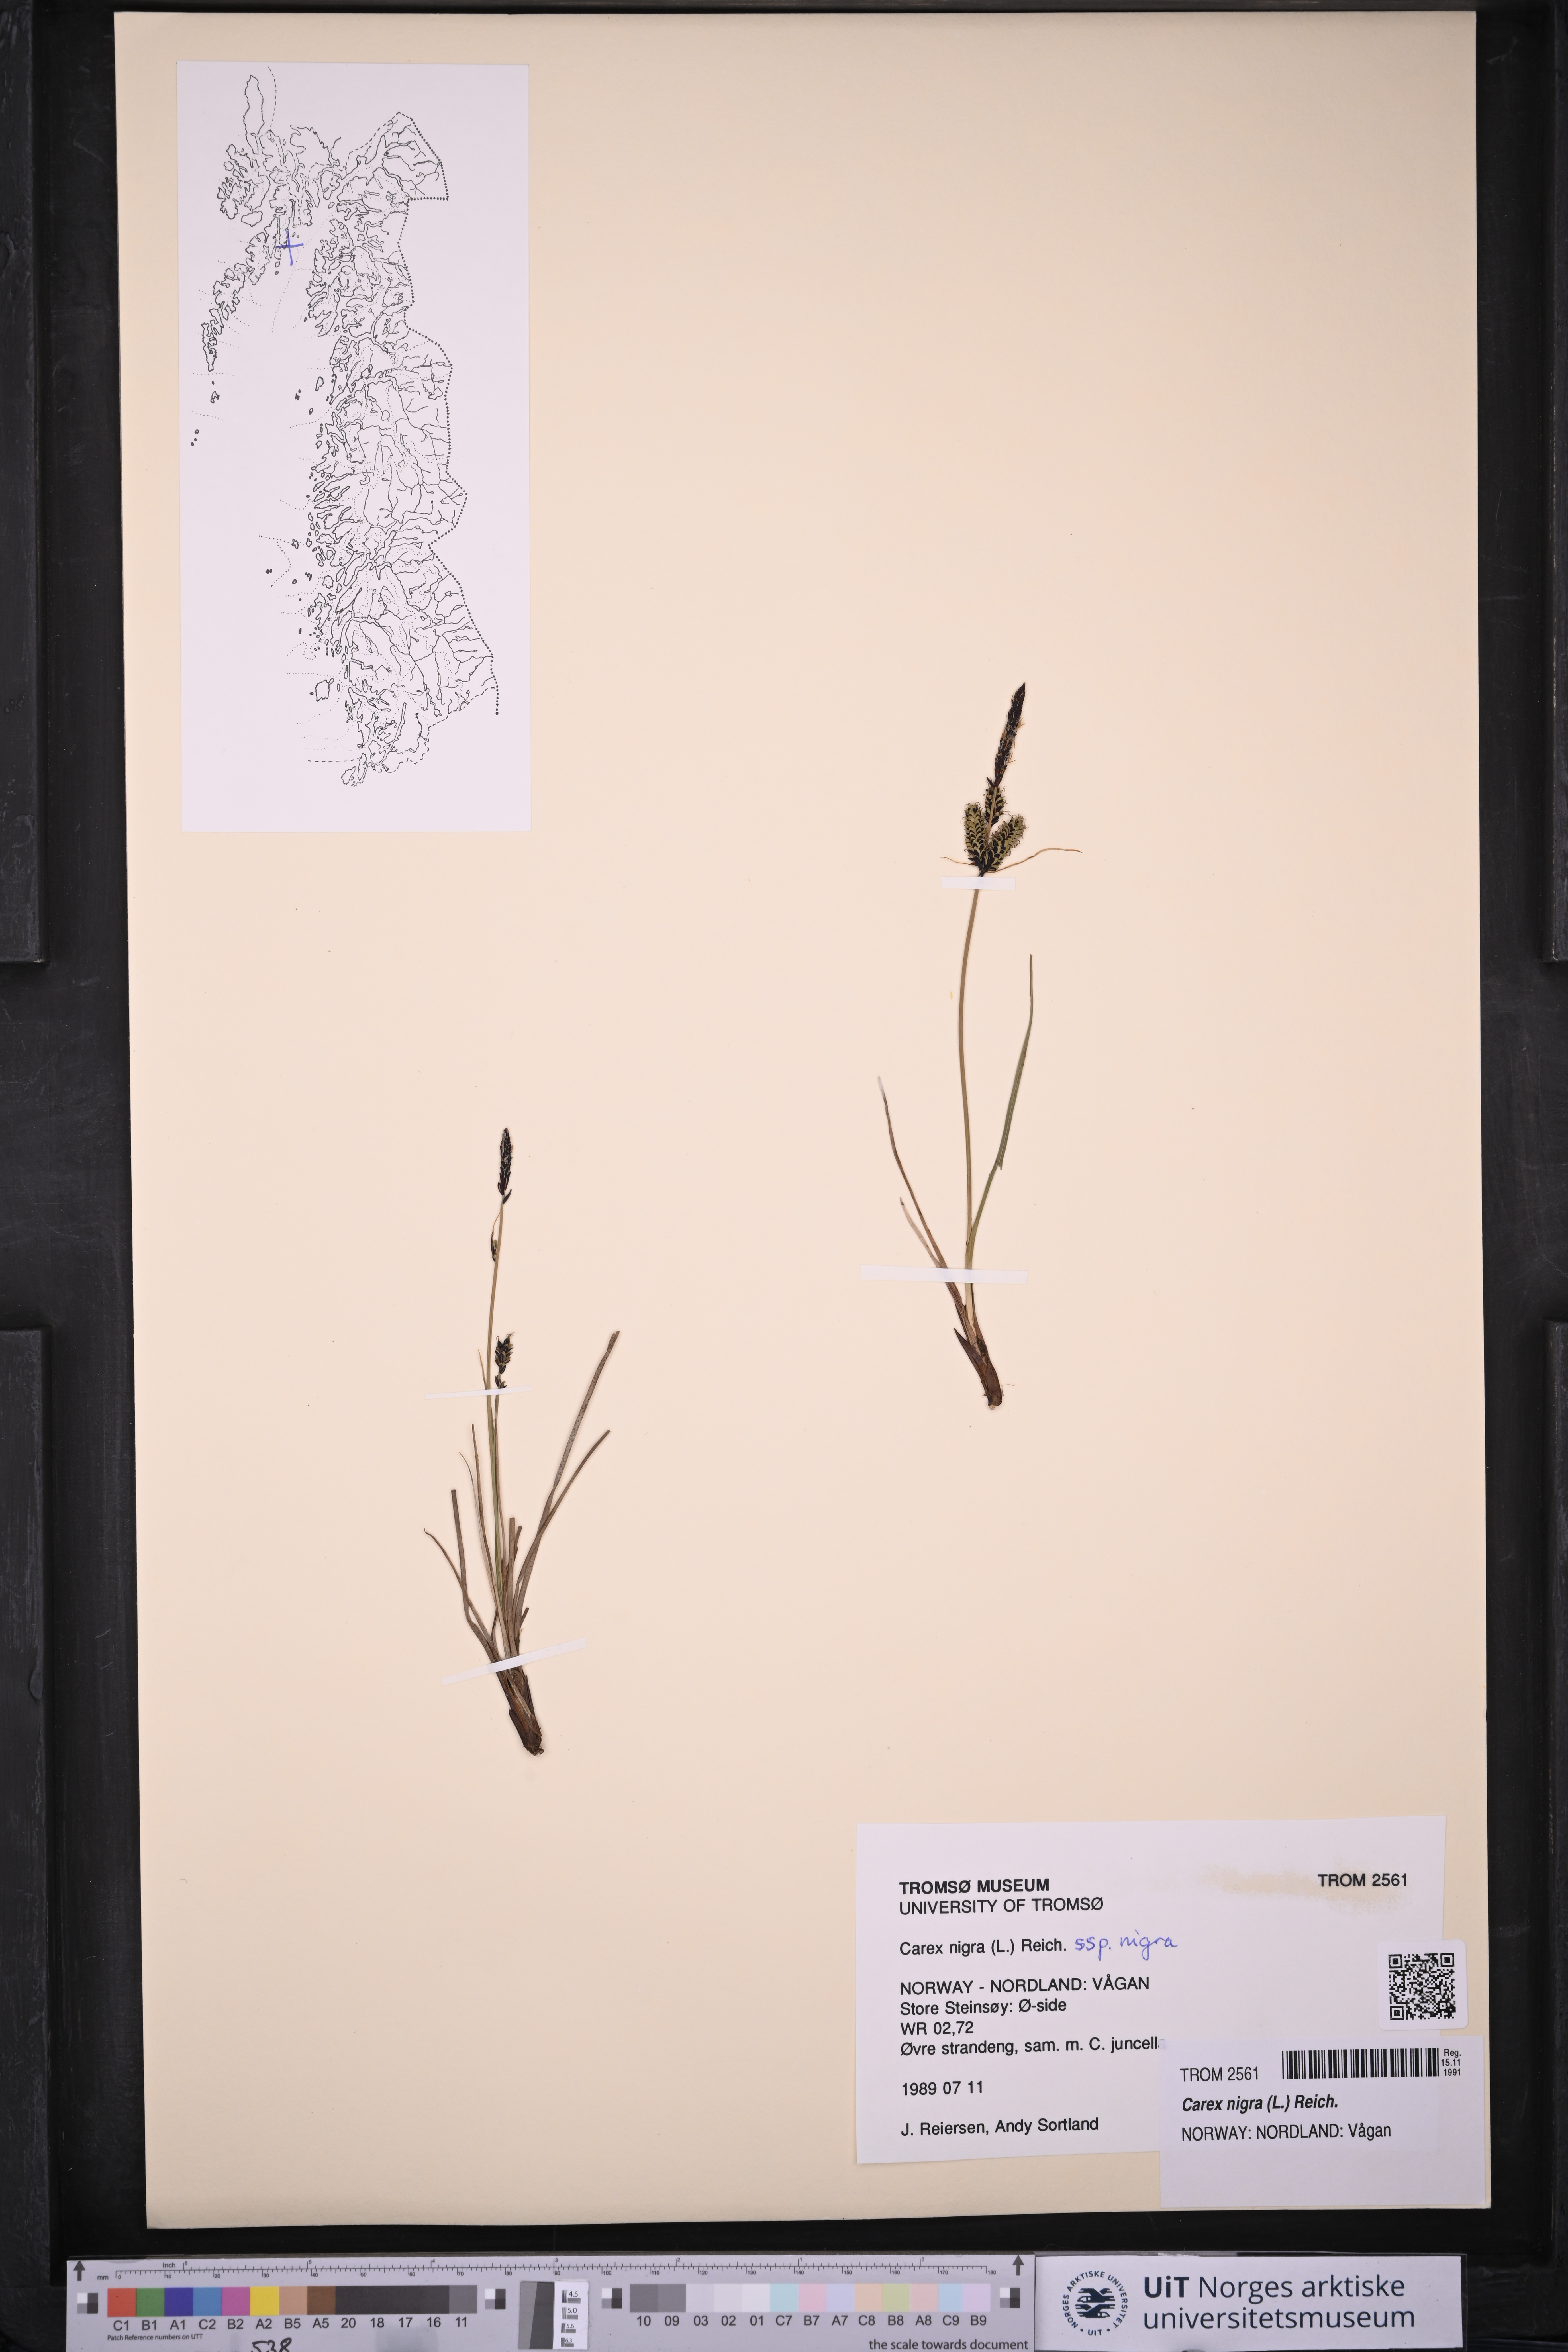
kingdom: Plantae
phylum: Tracheophyta
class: Liliopsida
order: Poales
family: Cyperaceae
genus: Carex
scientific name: Carex nigra
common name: Common sedge
